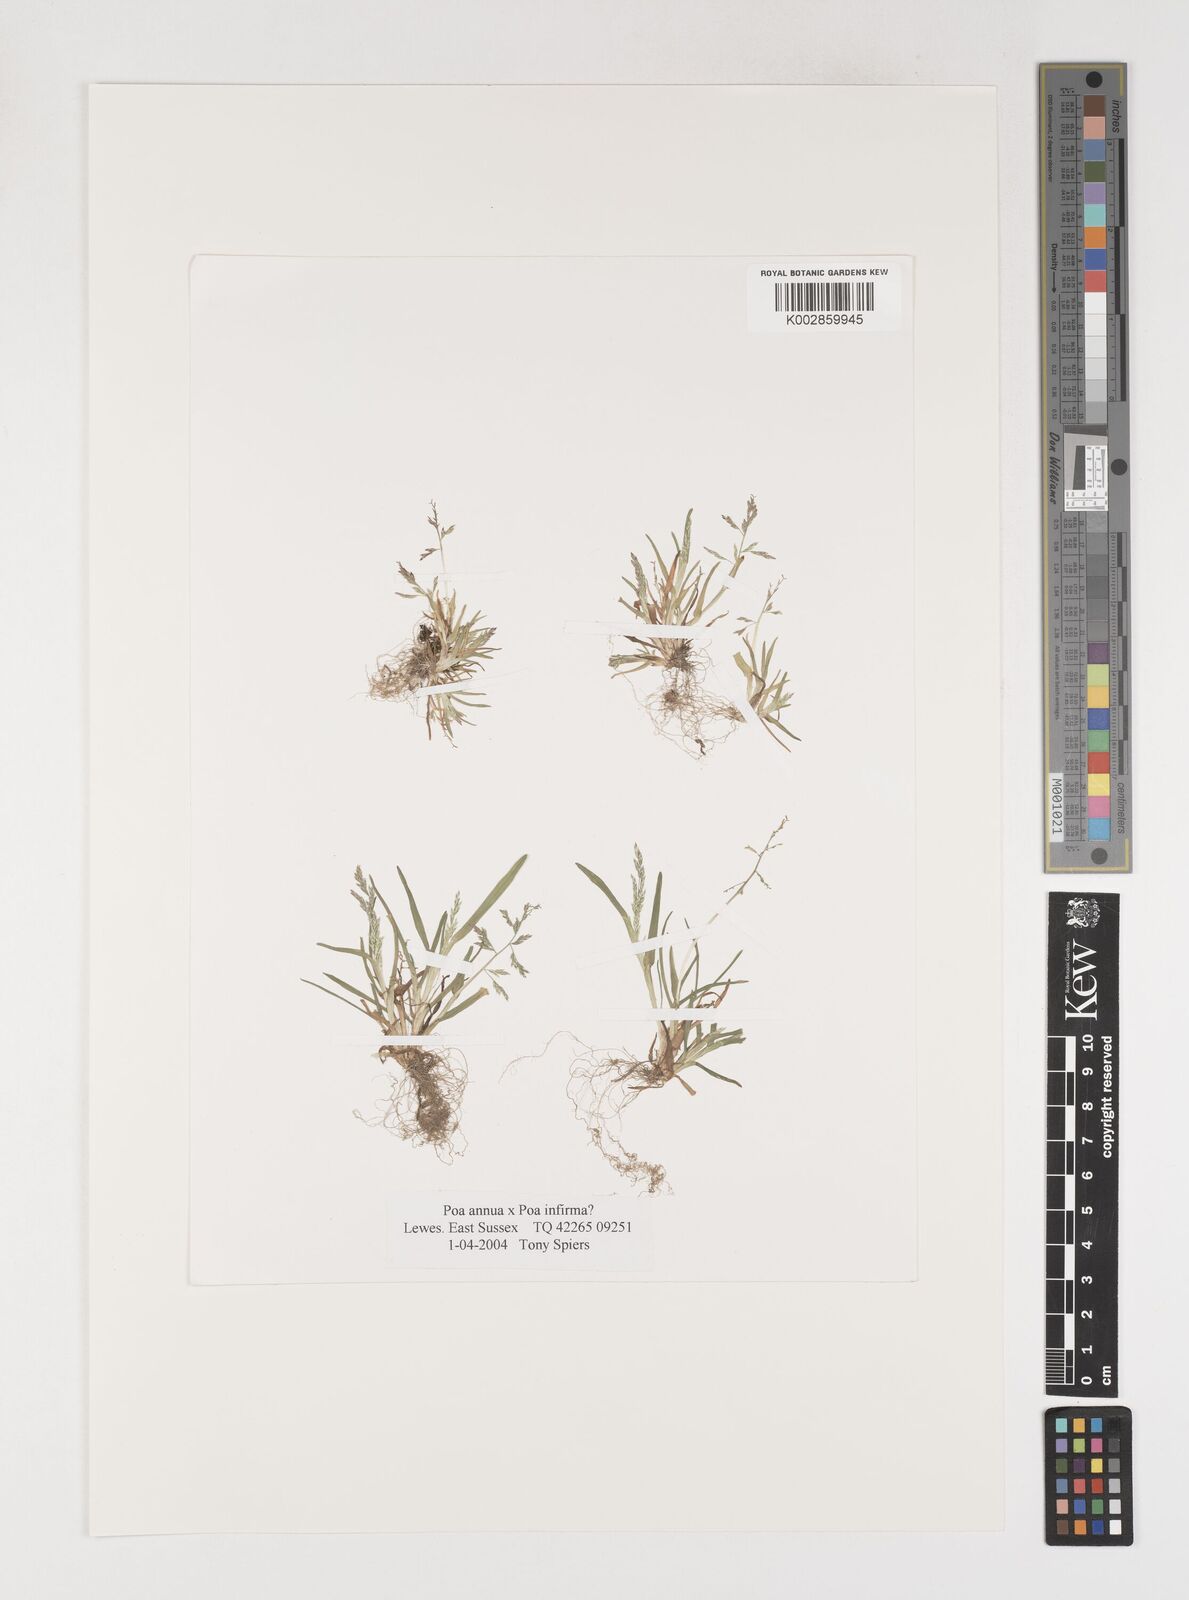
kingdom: Plantae
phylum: Tracheophyta
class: Liliopsida
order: Poales
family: Poaceae
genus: Poa
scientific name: Poa annua
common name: Annual bluegrass
